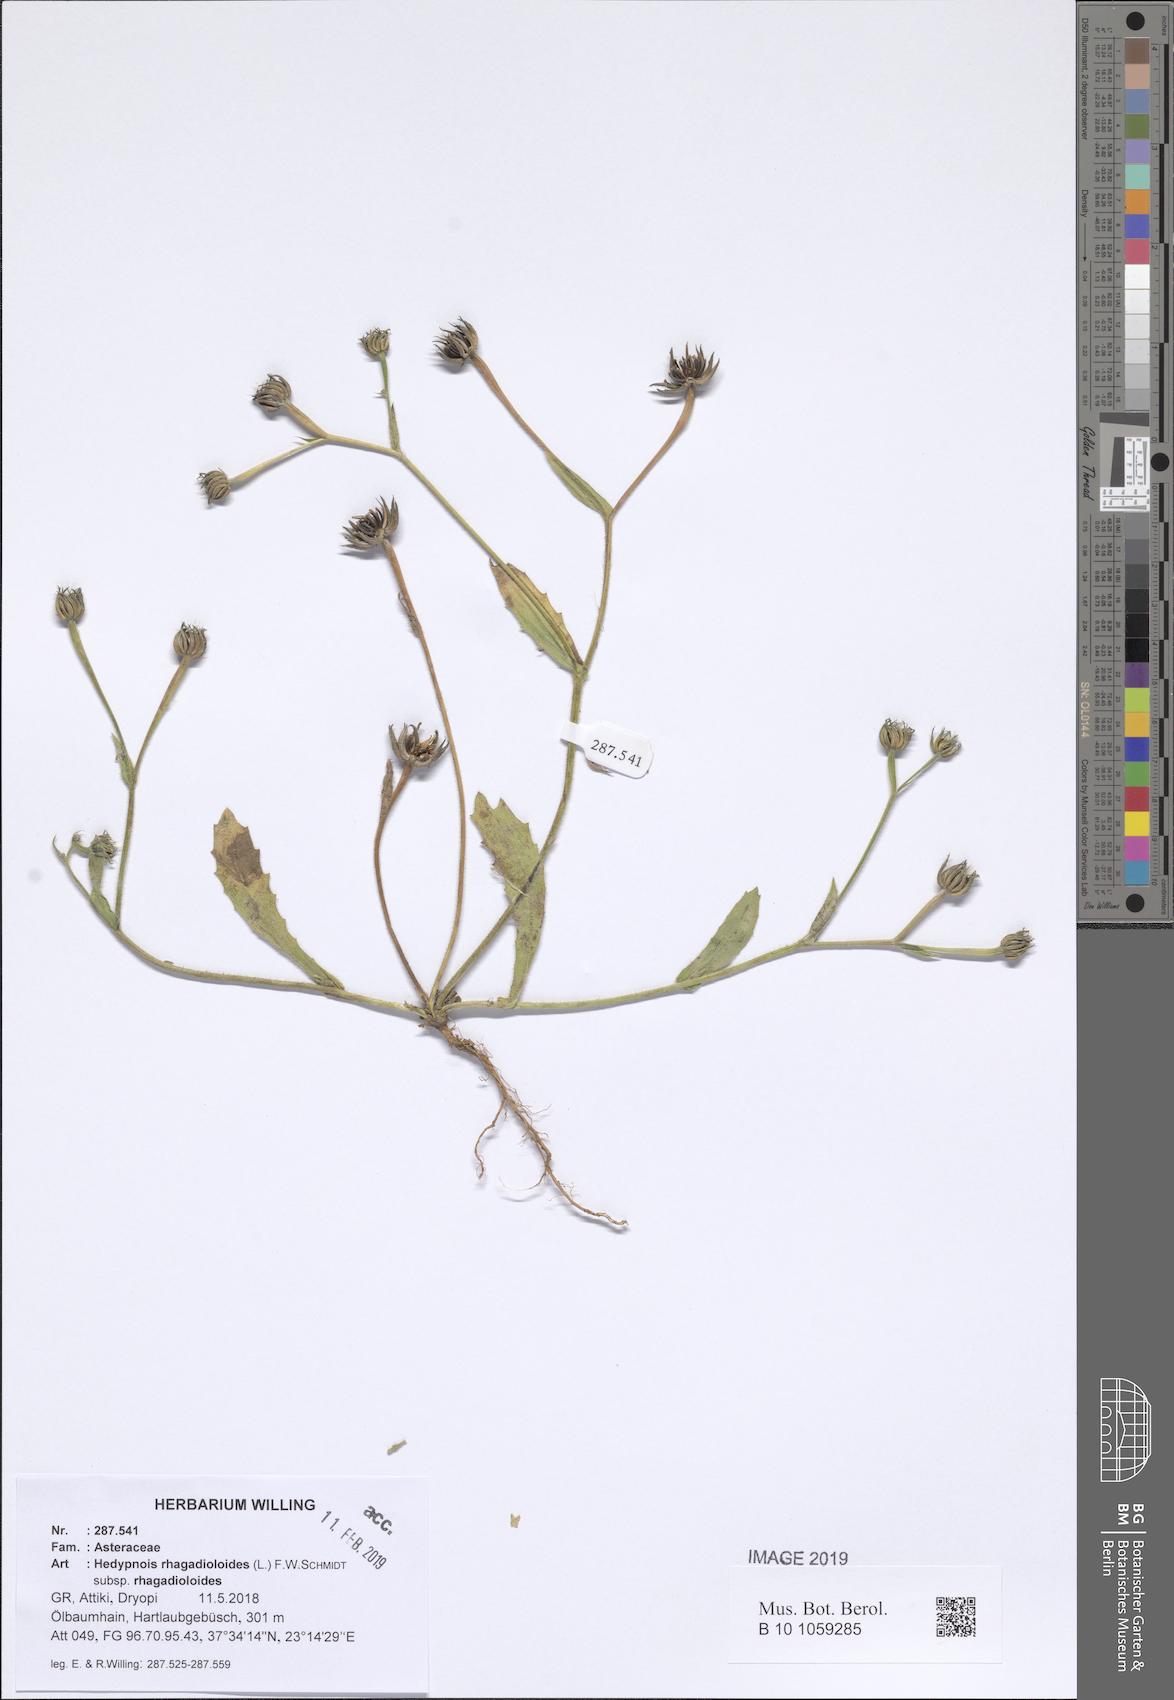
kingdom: Plantae
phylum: Tracheophyta
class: Magnoliopsida
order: Asterales
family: Asteraceae
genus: Hedypnois
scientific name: Hedypnois rhagadioloides
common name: Cretan weed
